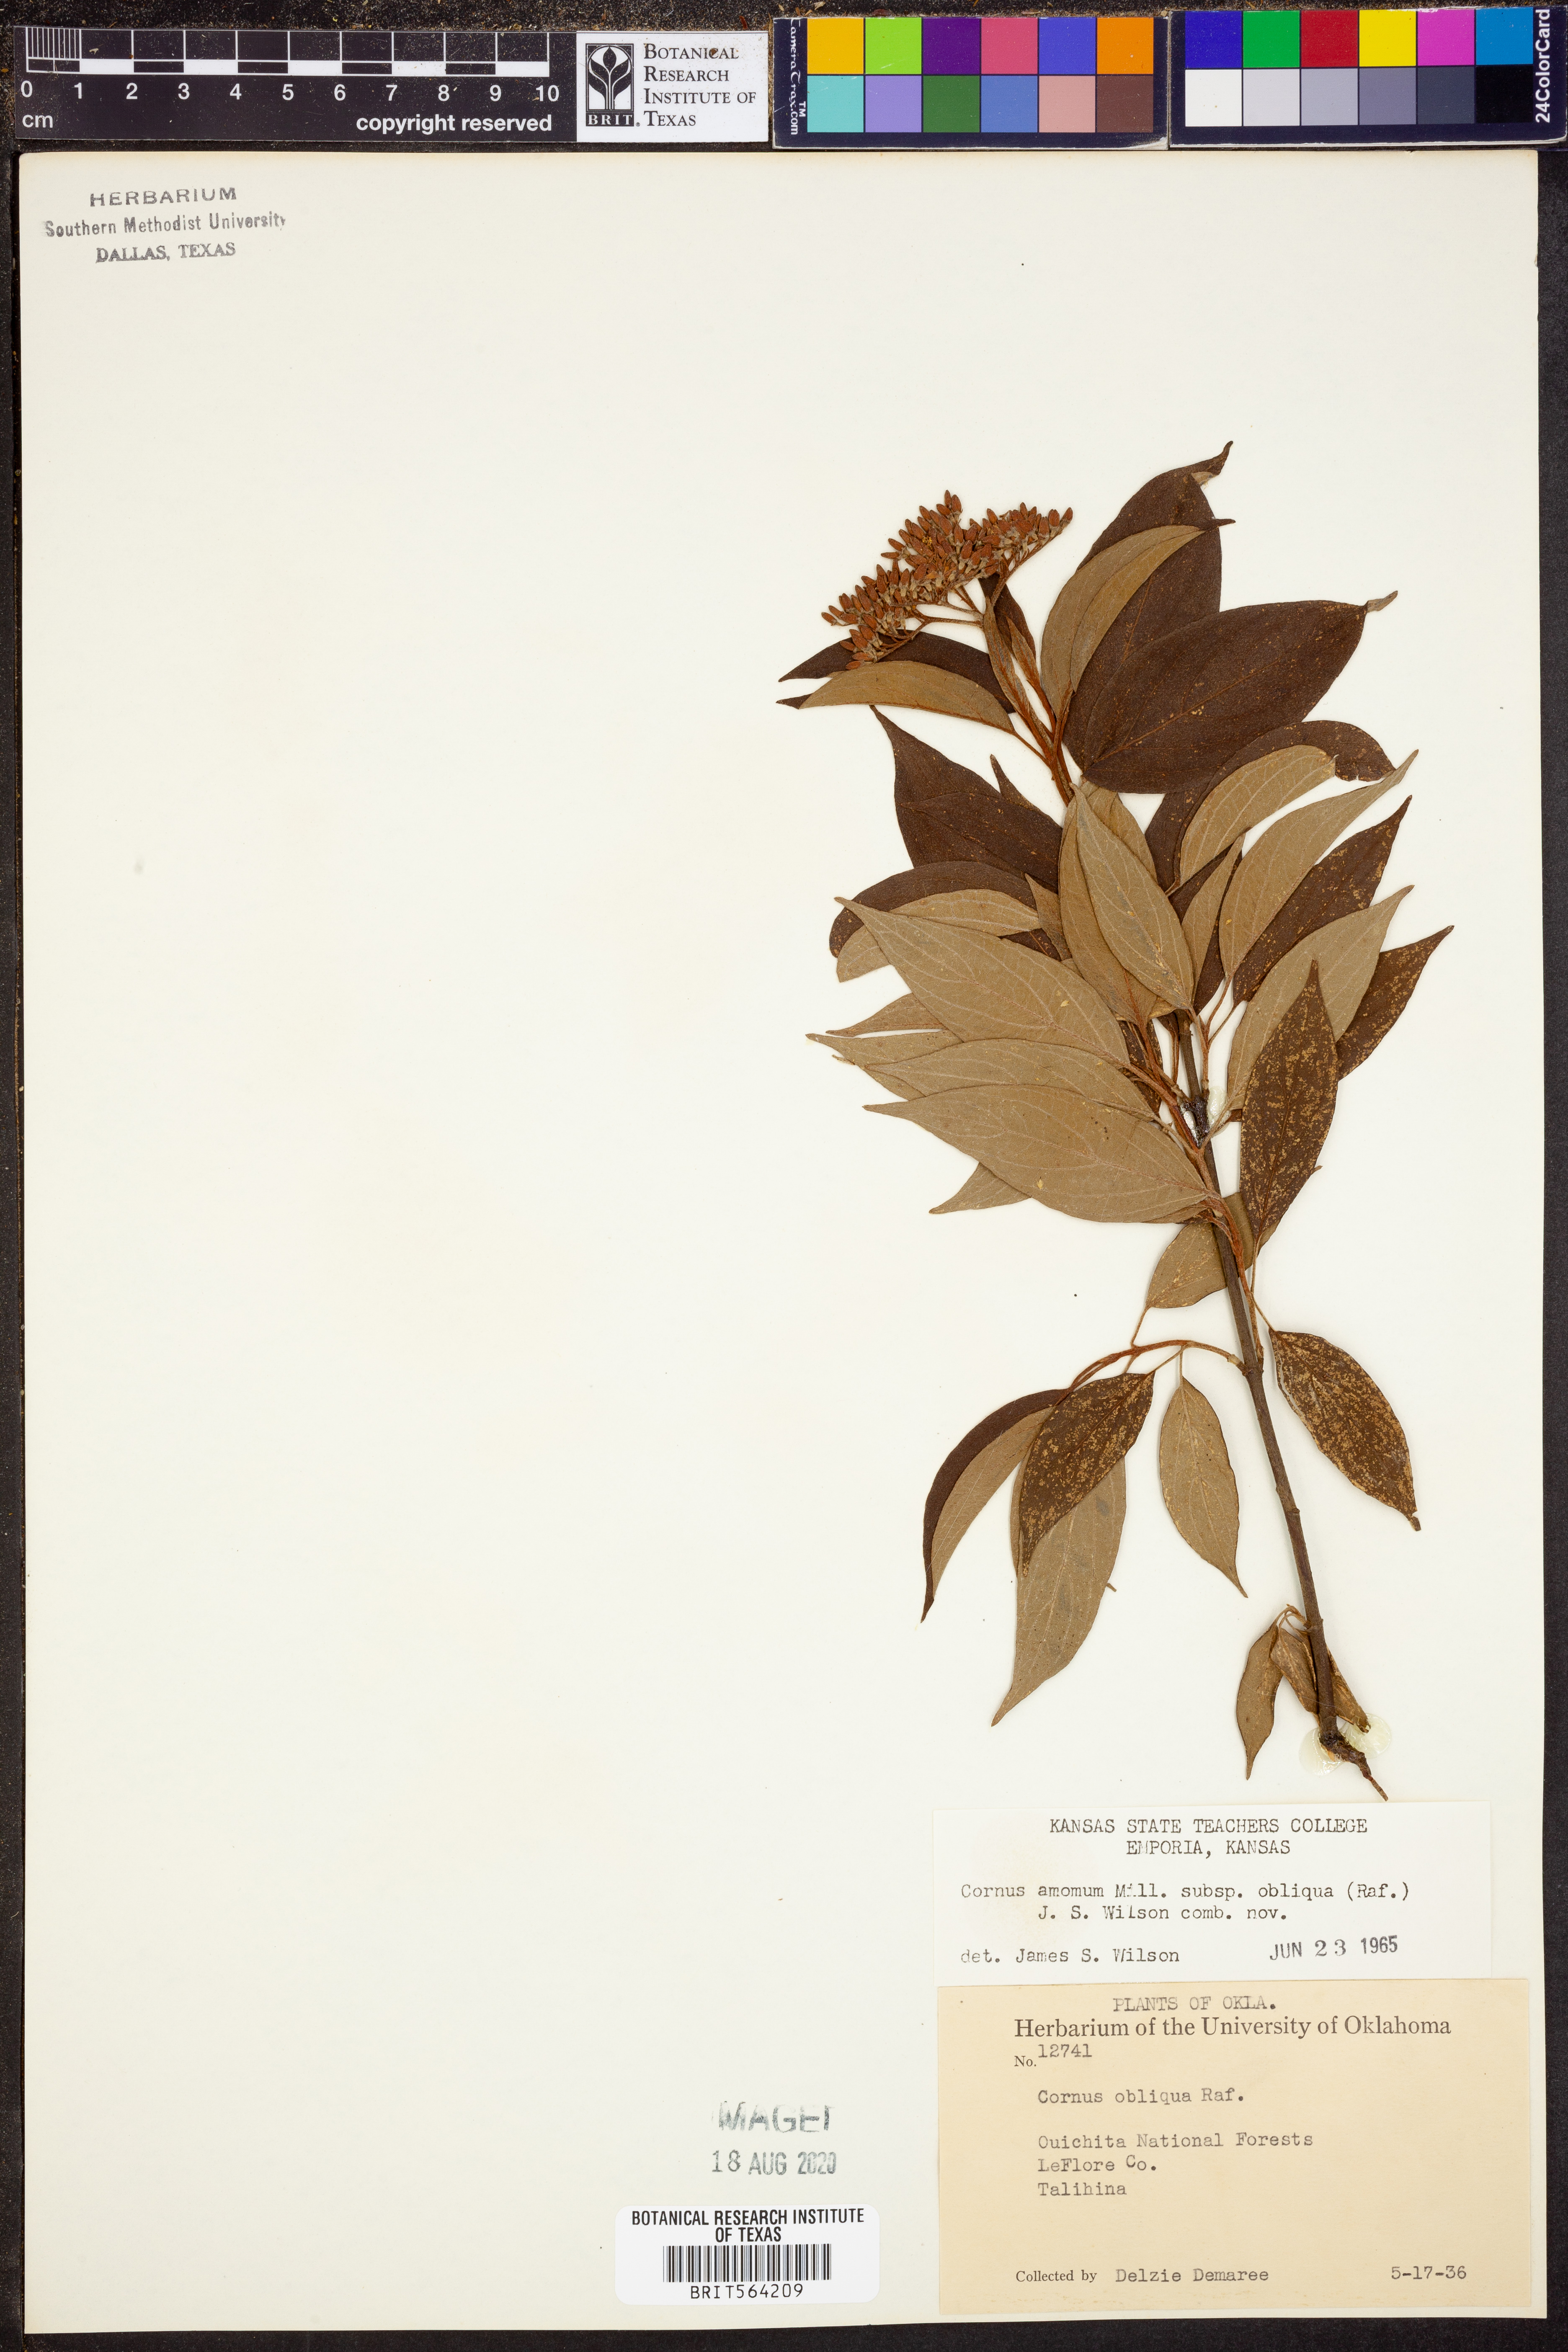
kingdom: Plantae
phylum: Tracheophyta
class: Magnoliopsida
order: Cornales
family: Cornaceae
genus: Cornus
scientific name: Cornus obliqua
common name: Pale dogwood
